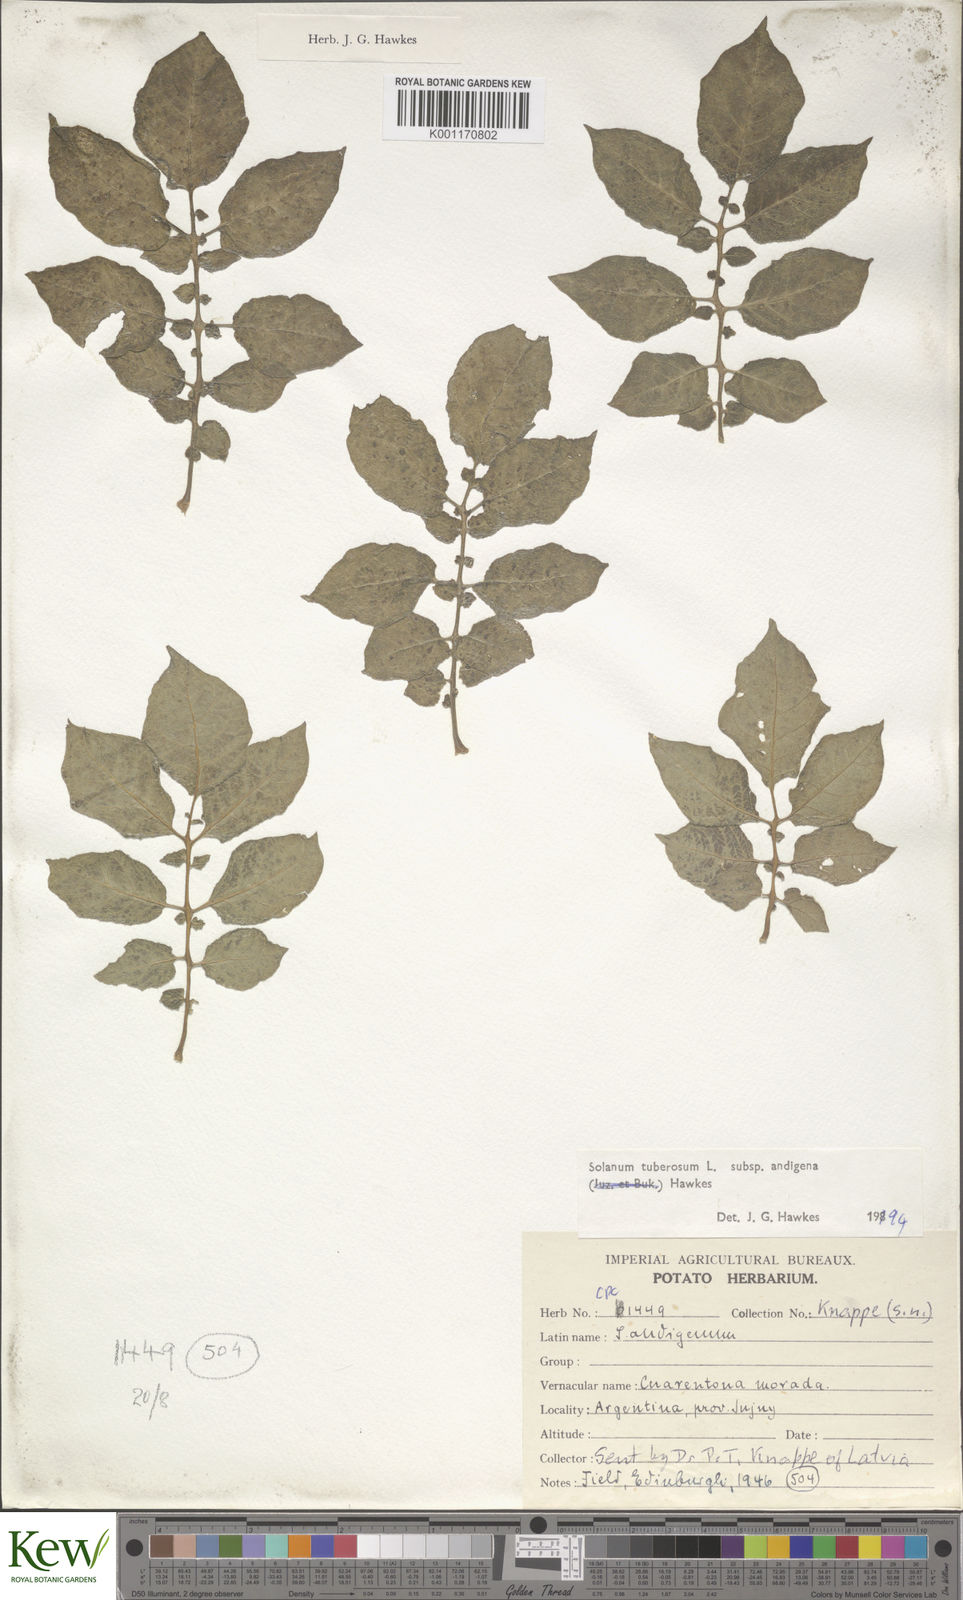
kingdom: Plantae
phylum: Tracheophyta
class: Magnoliopsida
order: Solanales
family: Solanaceae
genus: Solanum
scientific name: Solanum tuberosum
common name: Potato
